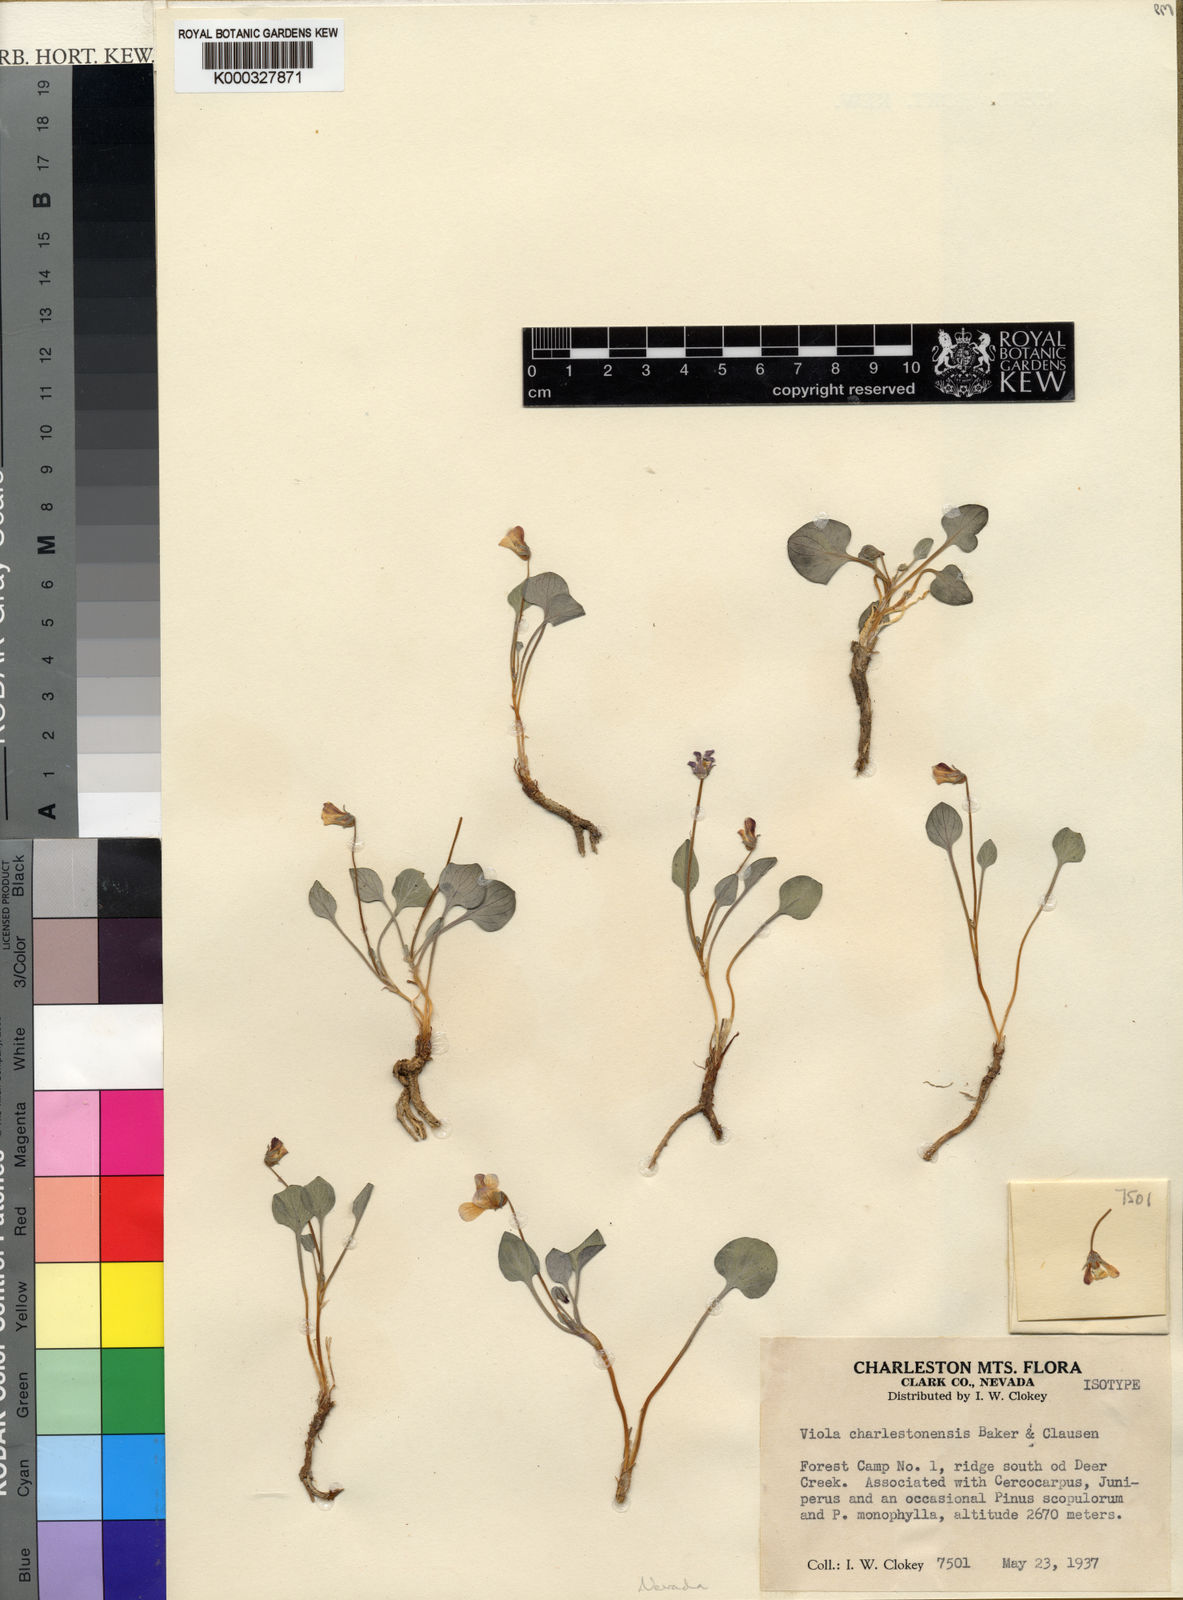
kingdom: Plantae
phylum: Tracheophyta
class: Magnoliopsida
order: Malpighiales
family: Violaceae
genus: Viola
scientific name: Viola charlestonensis
